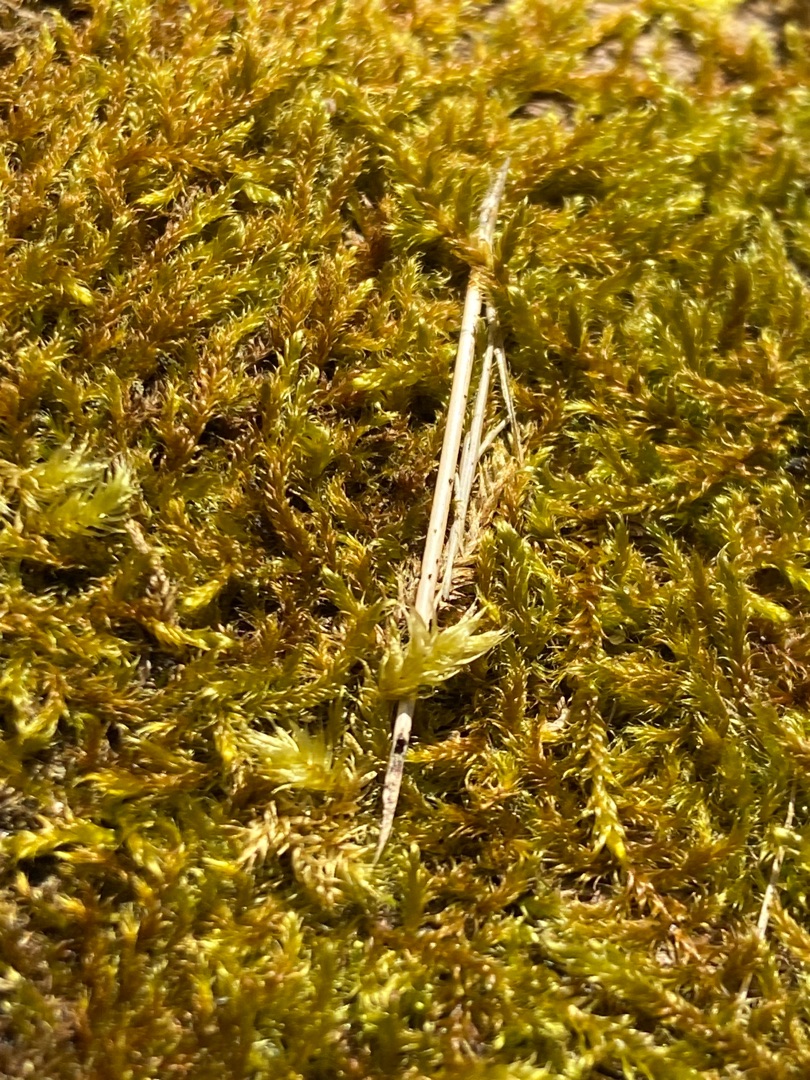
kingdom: Plantae
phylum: Bryophyta
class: Bryopsida
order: Hypnales
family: Hypnaceae
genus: Hypnum
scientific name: Hypnum
